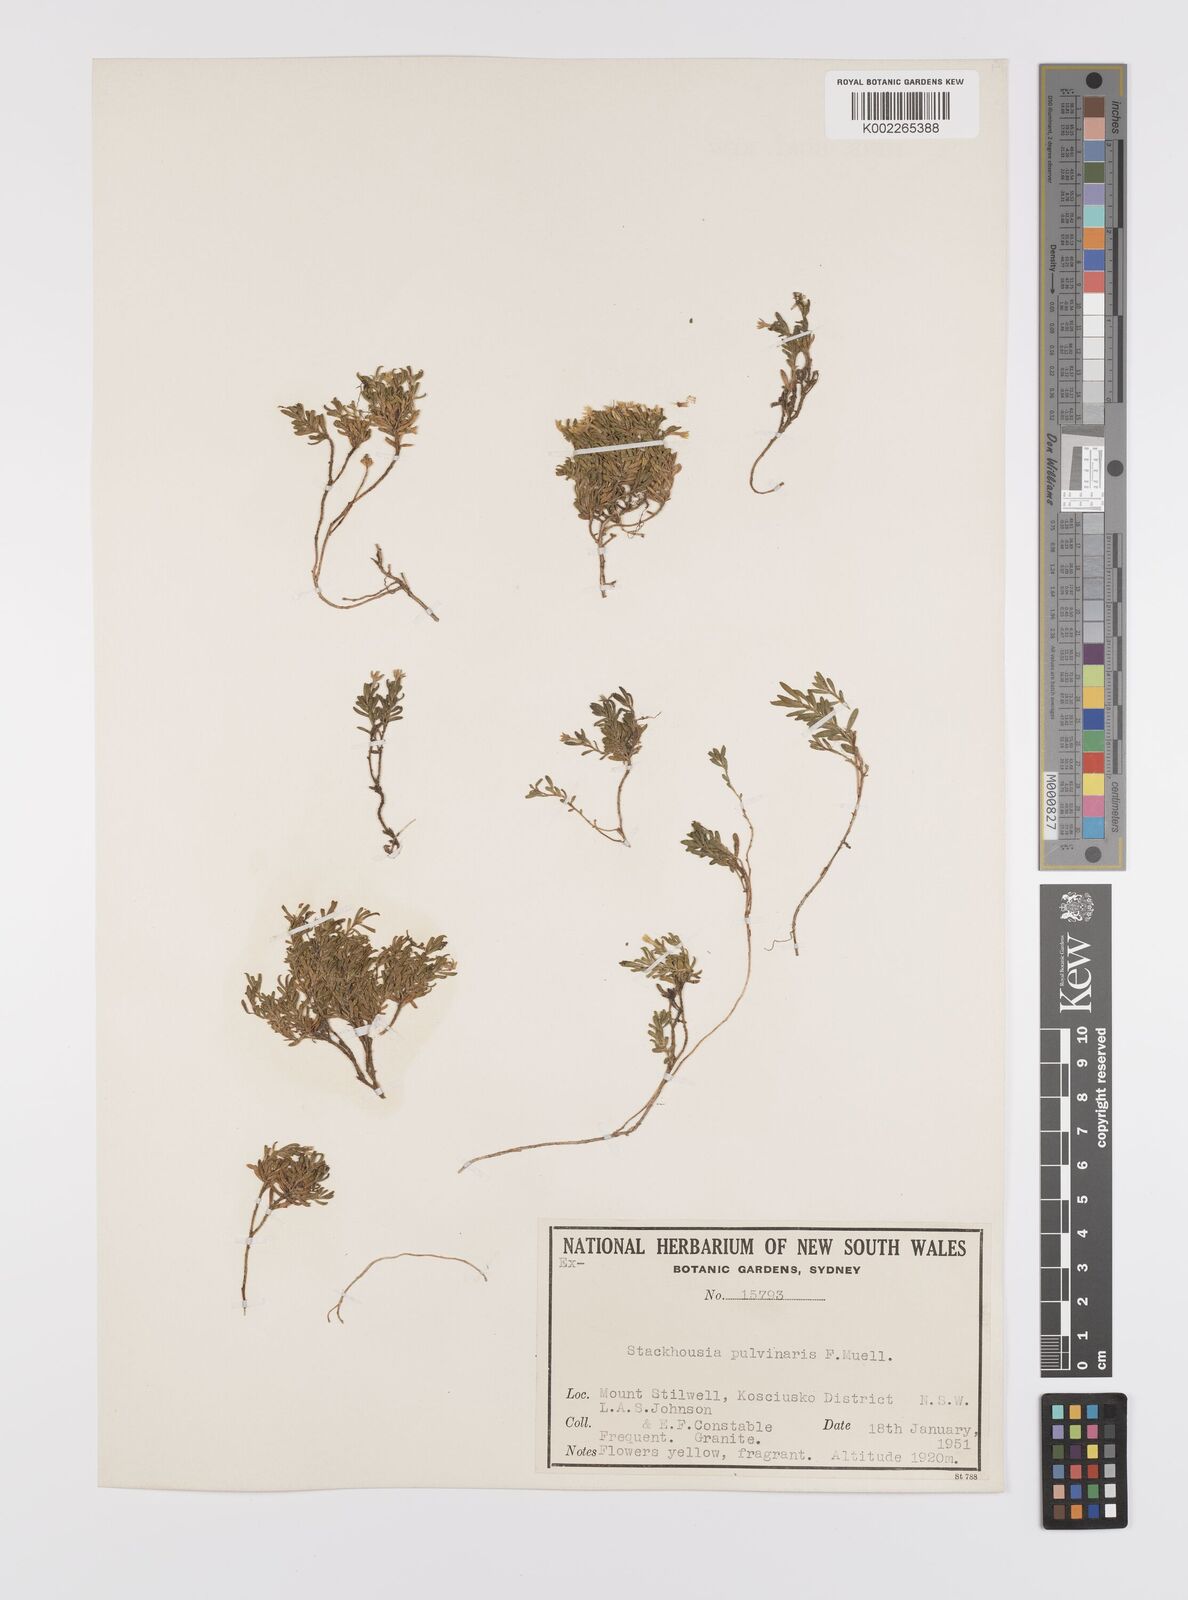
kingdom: Plantae
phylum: Tracheophyta
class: Magnoliopsida
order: Celastrales
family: Celastraceae
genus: Stackhousia
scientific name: Stackhousia pulvinaris
